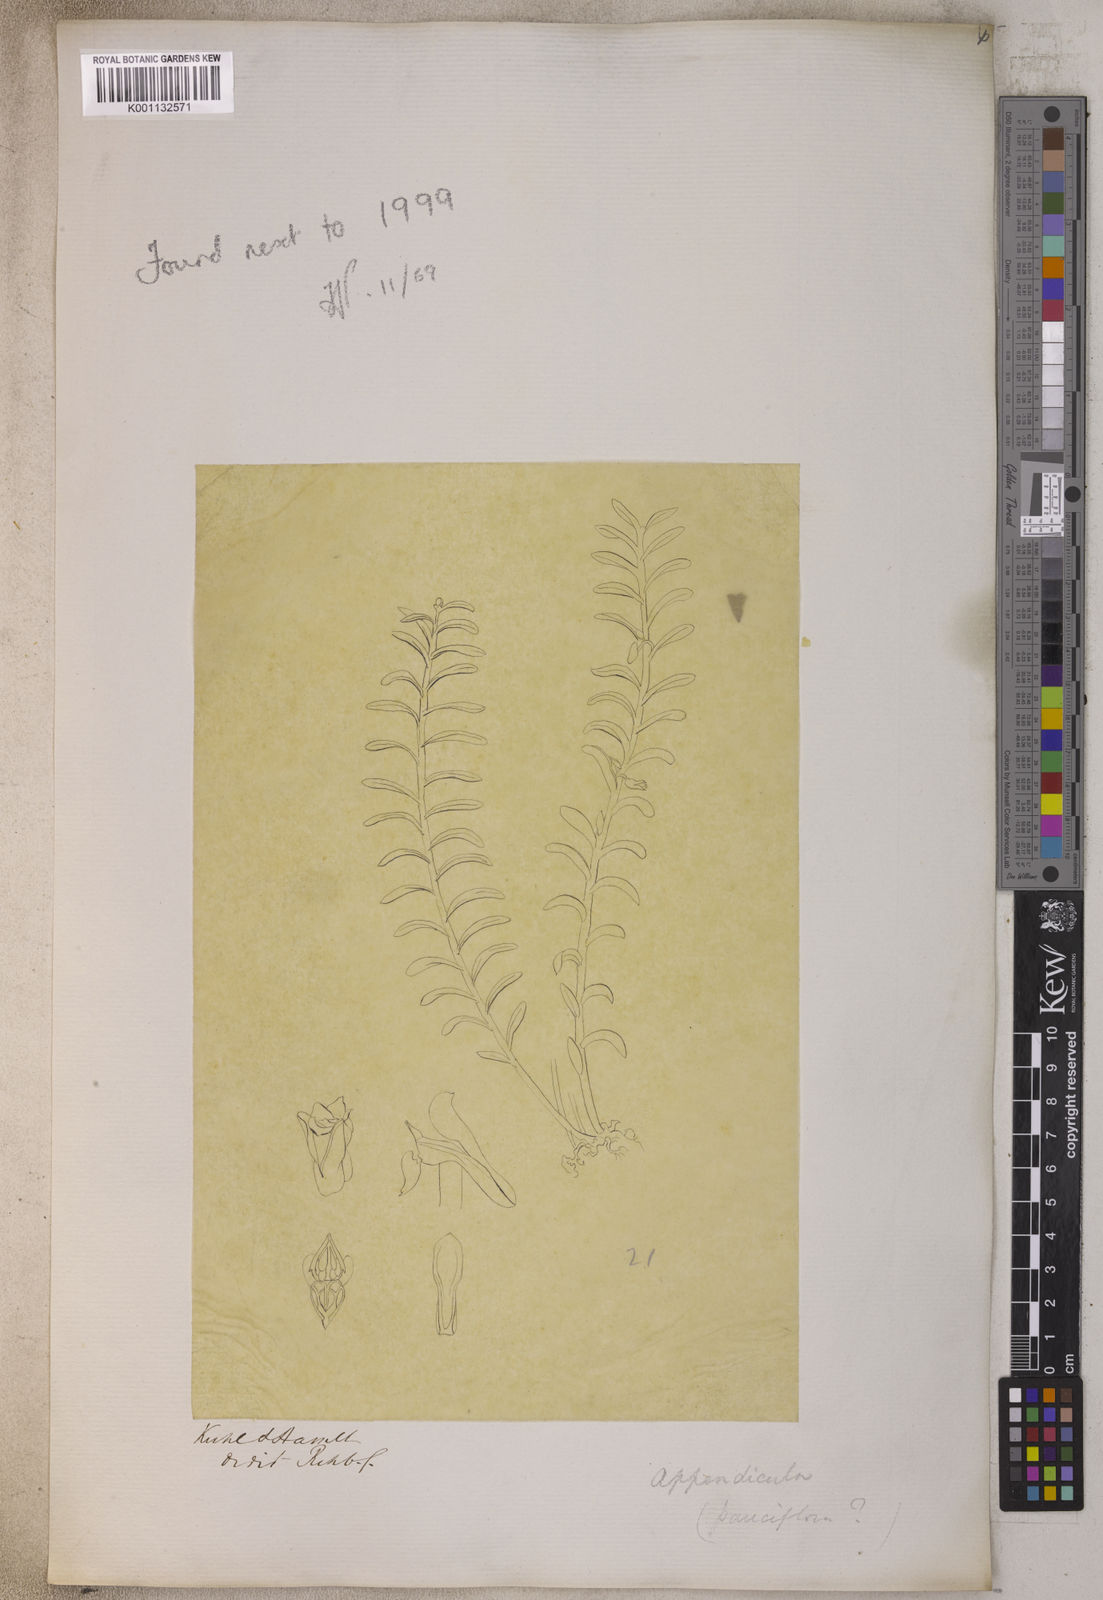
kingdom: Plantae
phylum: Tracheophyta
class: Liliopsida
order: Asparagales
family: Orchidaceae
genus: Dendrobium
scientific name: Dendrobium
